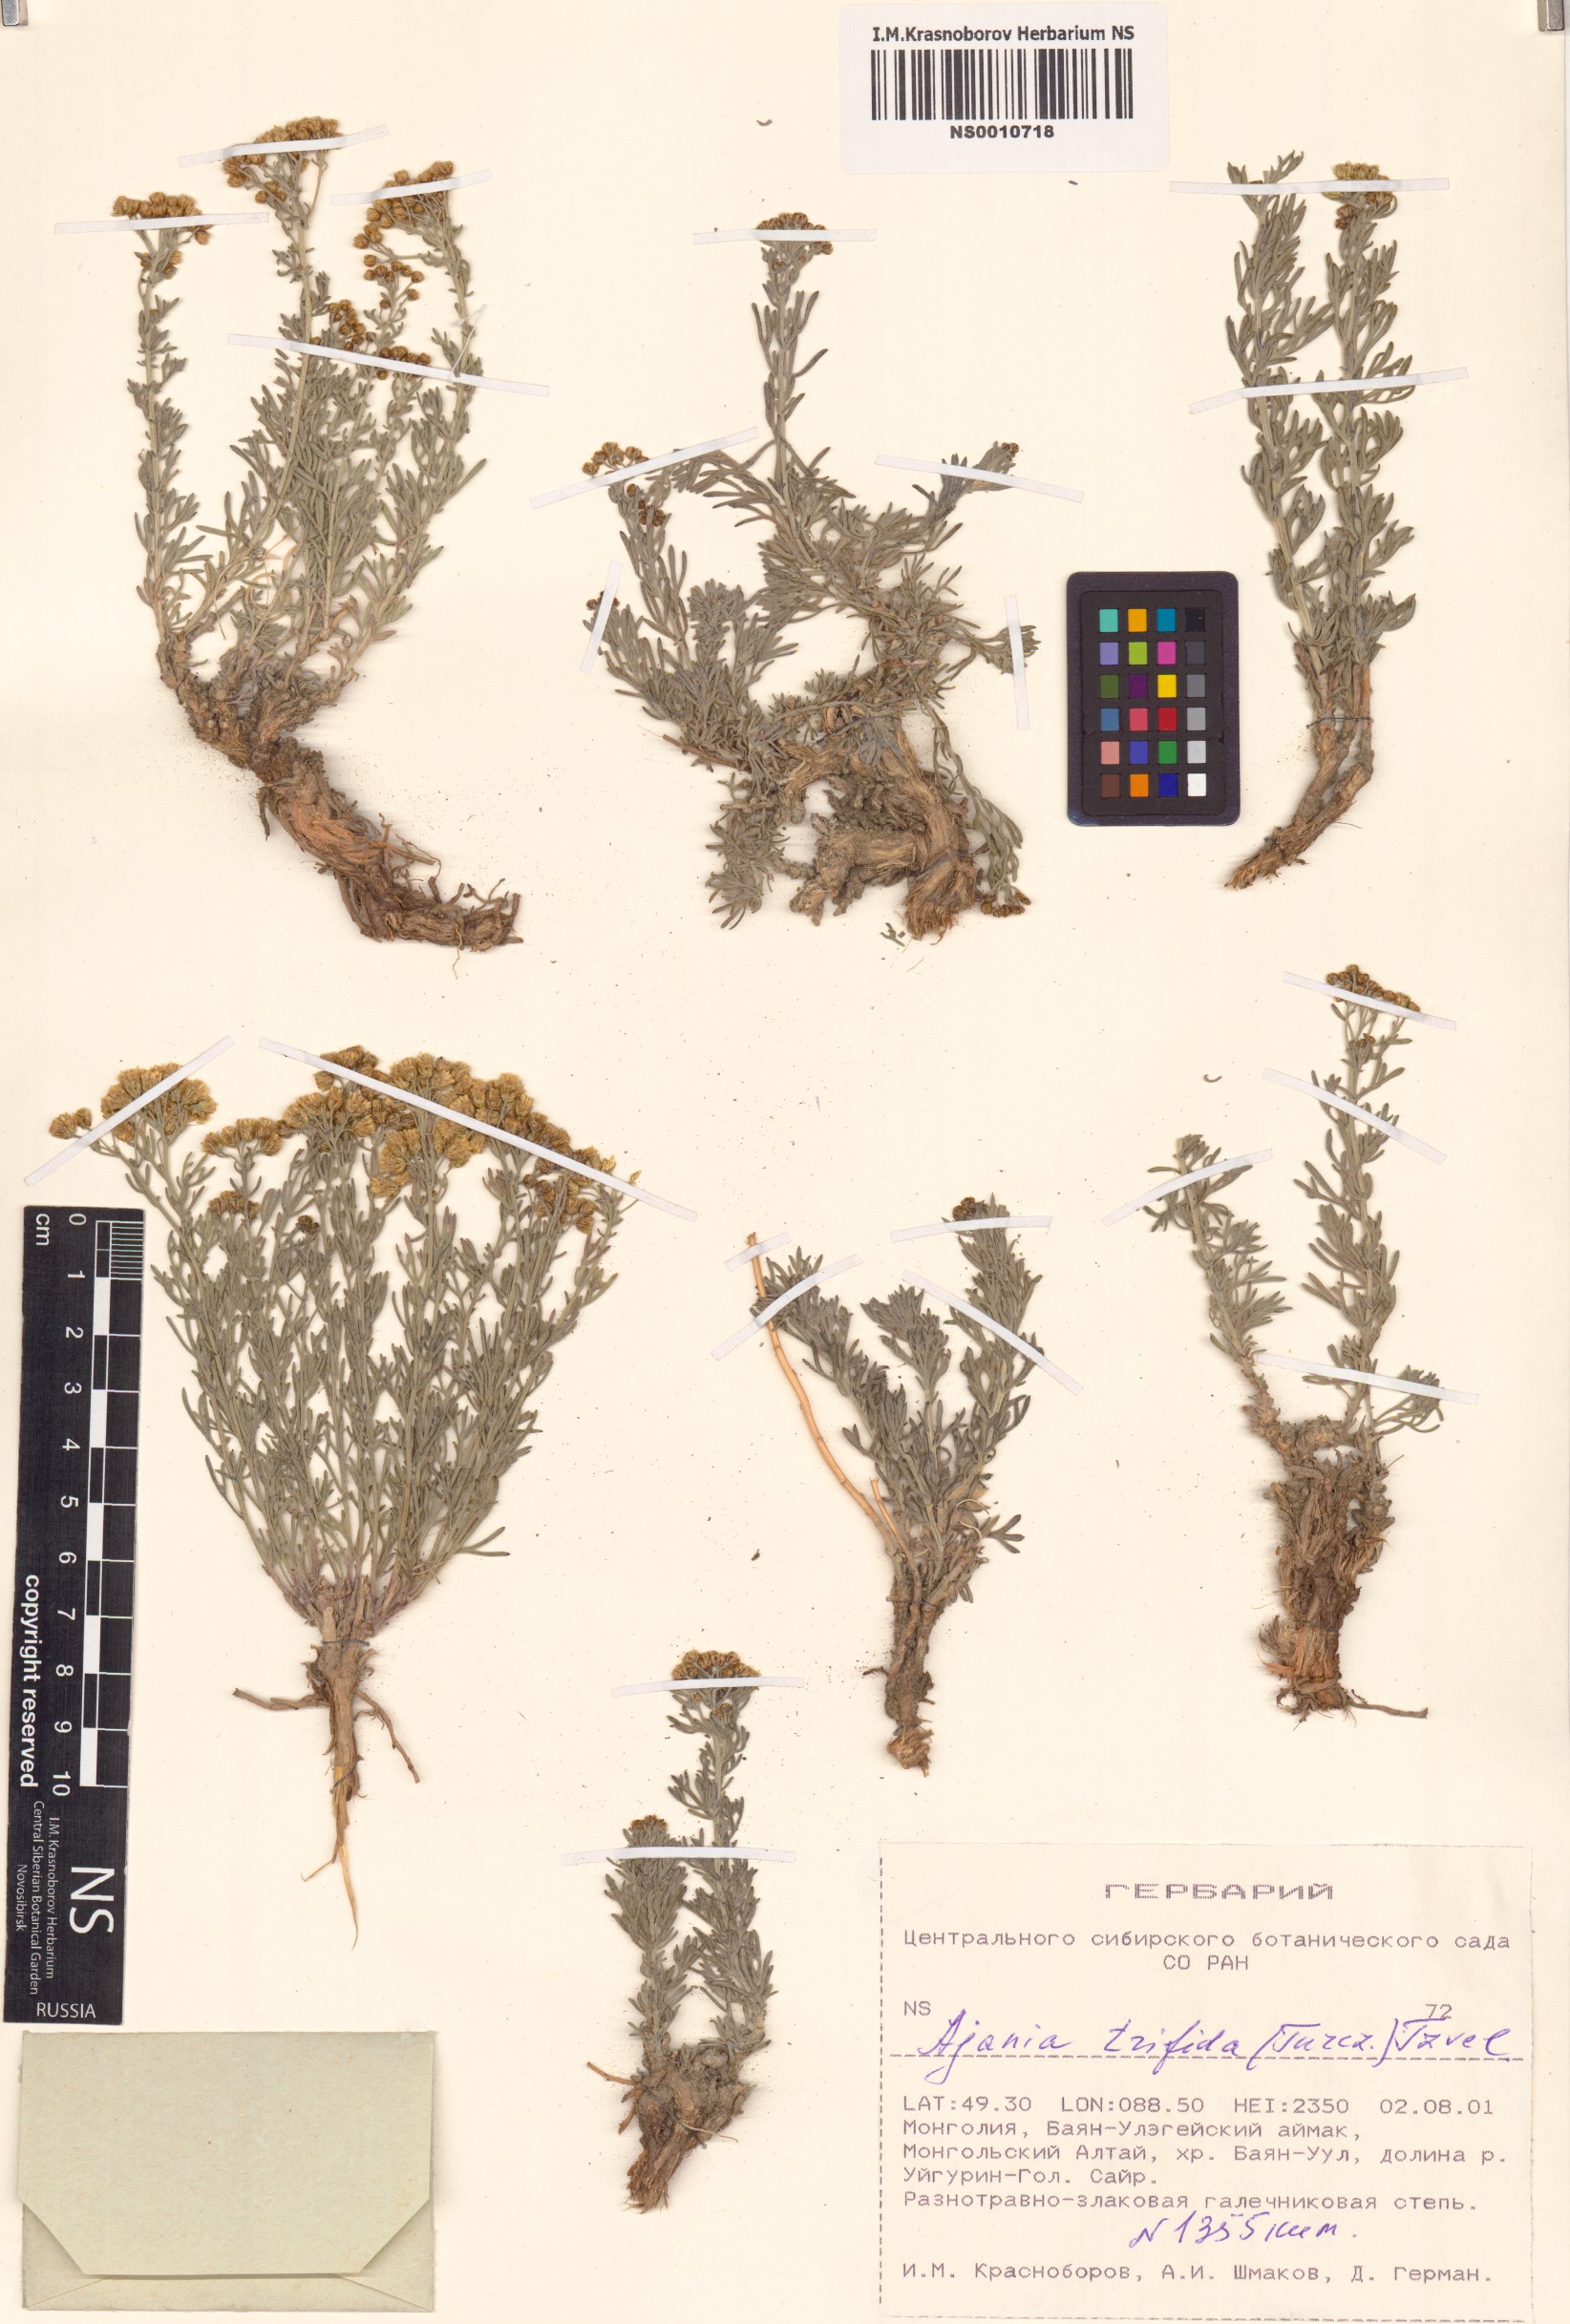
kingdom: Plantae
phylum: Tracheophyta
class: Magnoliopsida
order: Asterales
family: Asteraceae
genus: Ajania
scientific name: Ajania trifida
